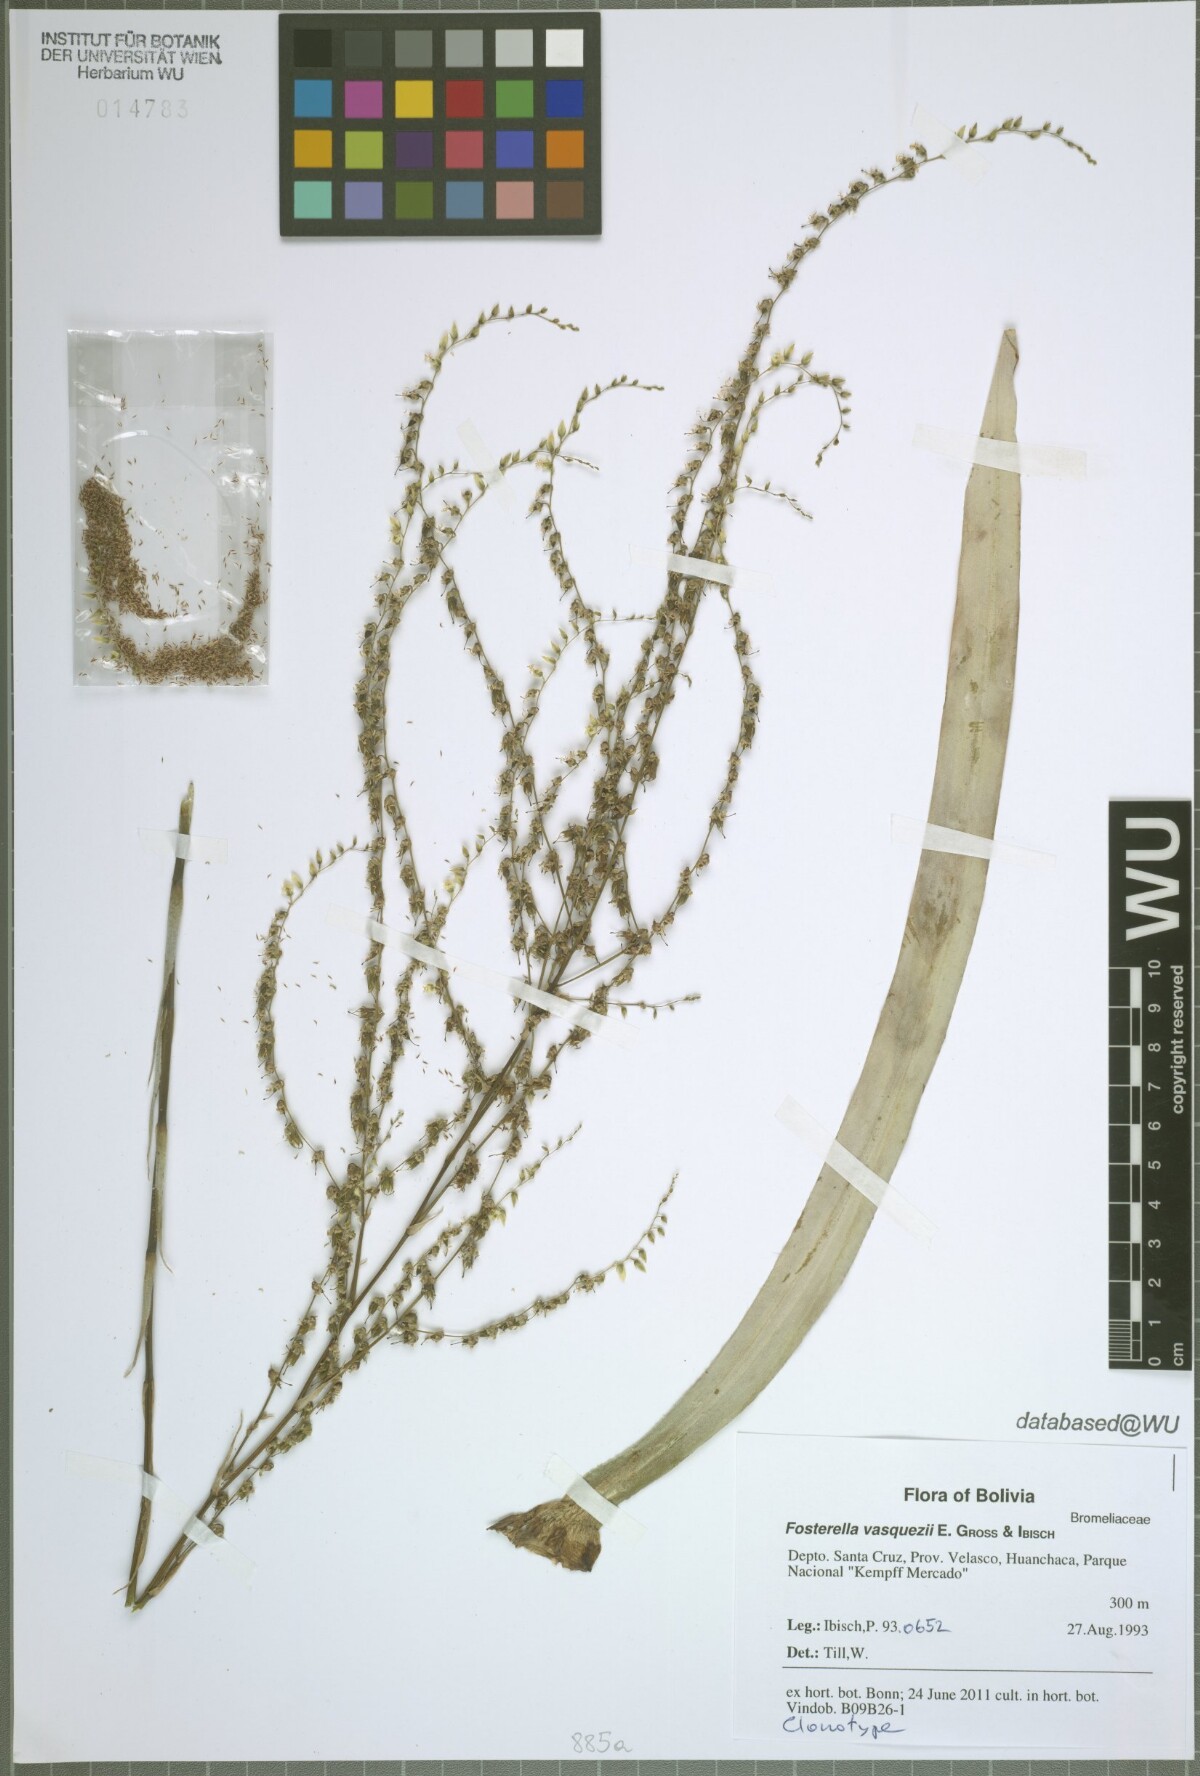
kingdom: Plantae
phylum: Tracheophyta
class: Liliopsida
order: Poales
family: Bromeliaceae
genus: Fosterella
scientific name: Fosterella vasquezii
